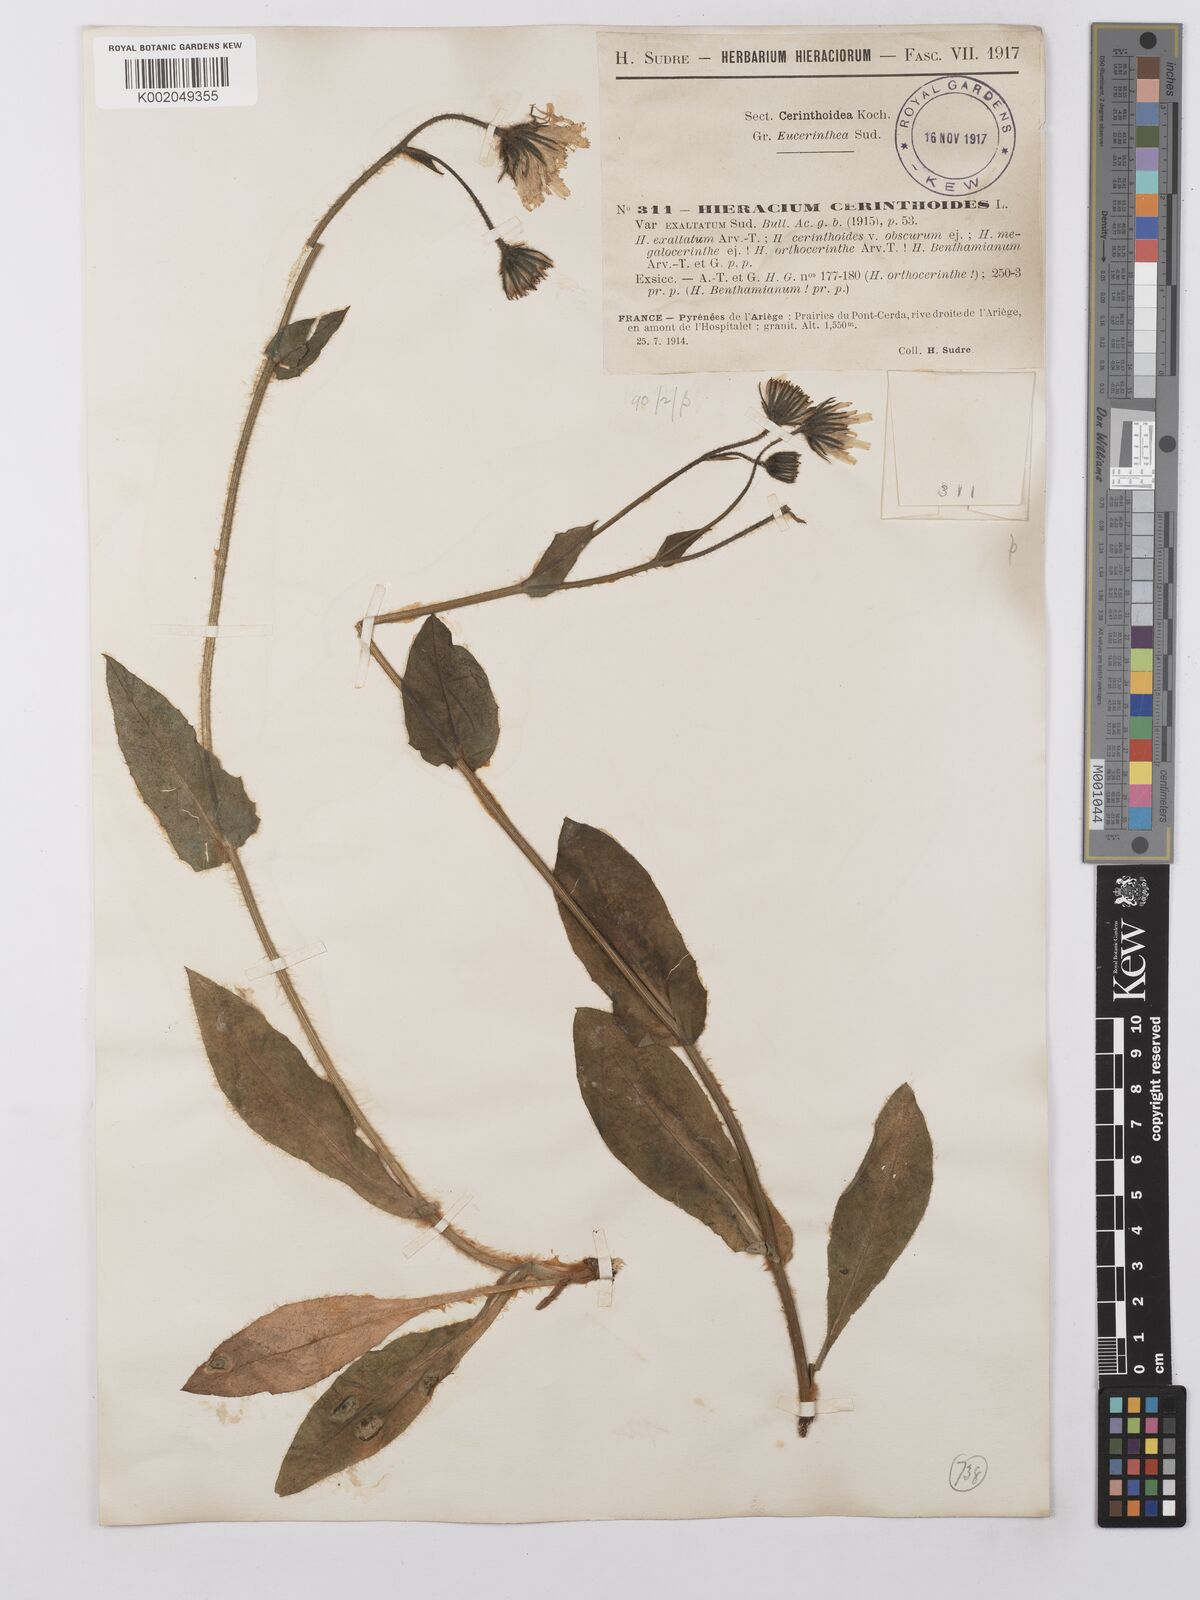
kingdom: Plantae
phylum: Tracheophyta
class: Magnoliopsida
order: Asterales
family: Asteraceae
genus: Hieracium
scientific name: Hieracium cerinthoides
